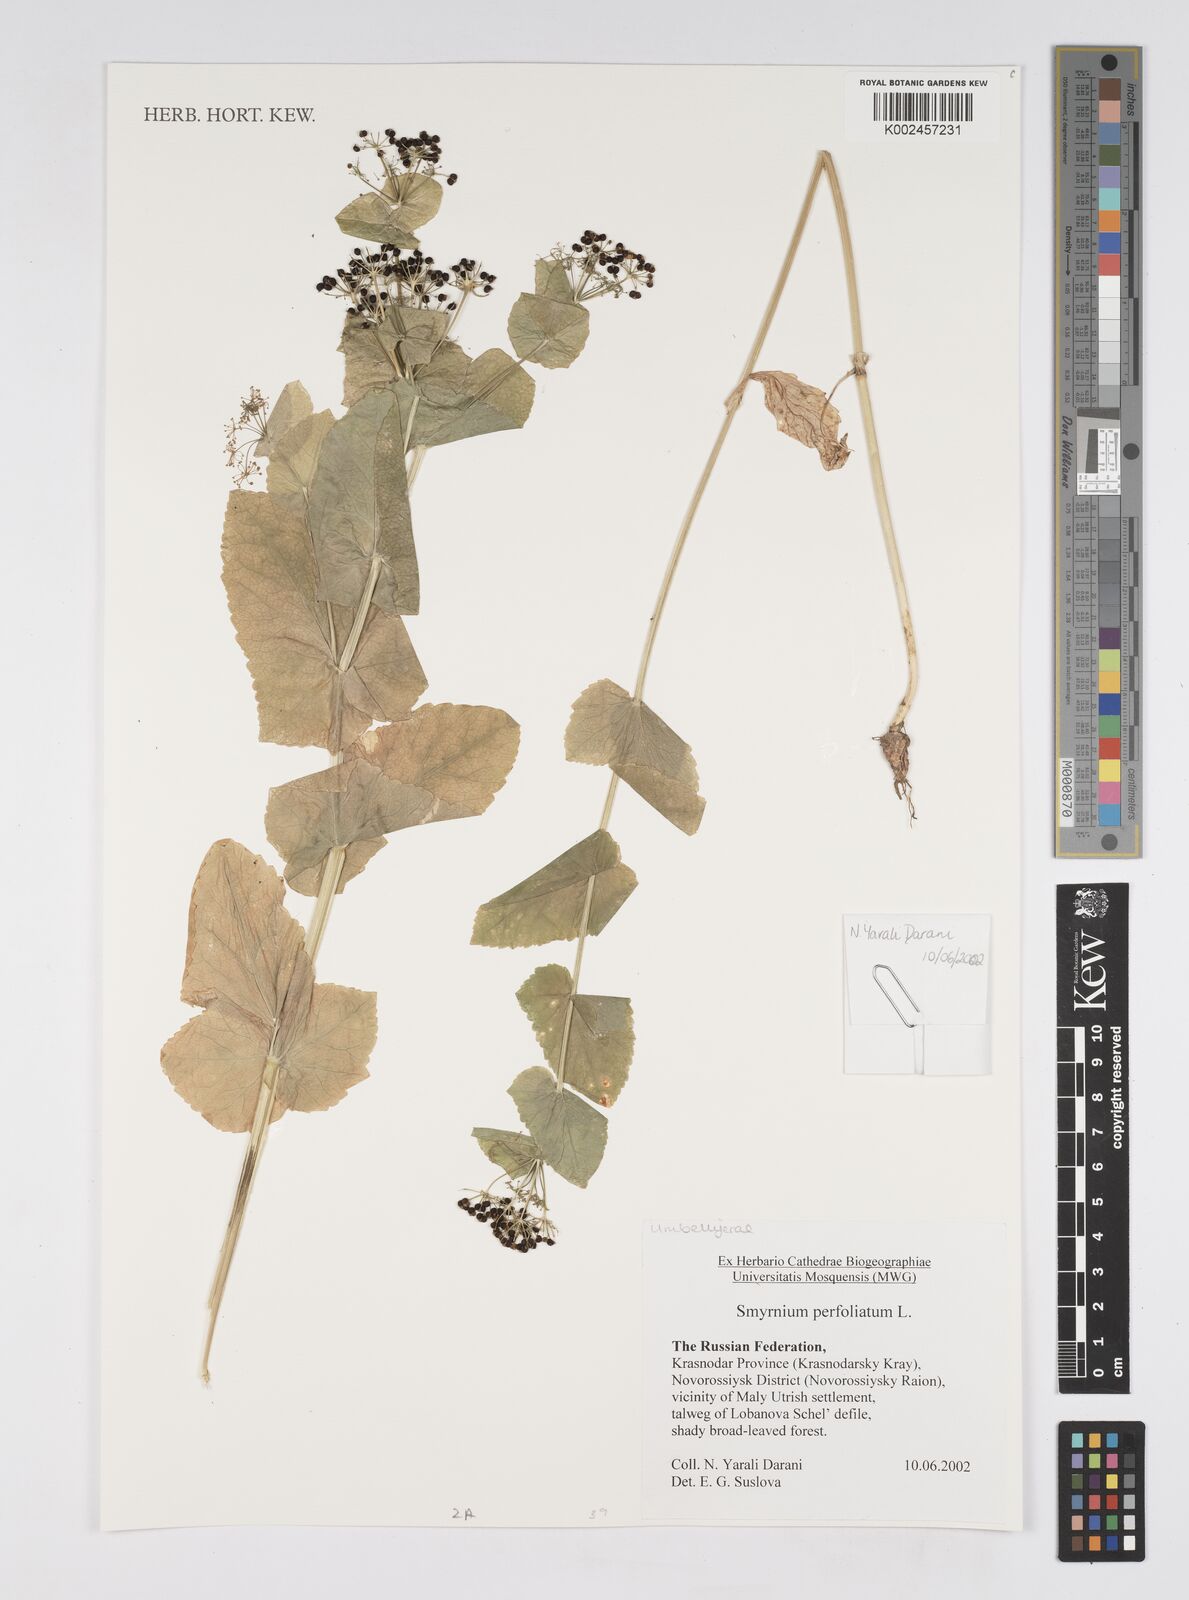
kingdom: Plantae
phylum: Tracheophyta
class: Magnoliopsida
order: Apiales
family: Apiaceae
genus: Smyrnium
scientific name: Smyrnium perfoliatum
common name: Perfoliate alexanders
